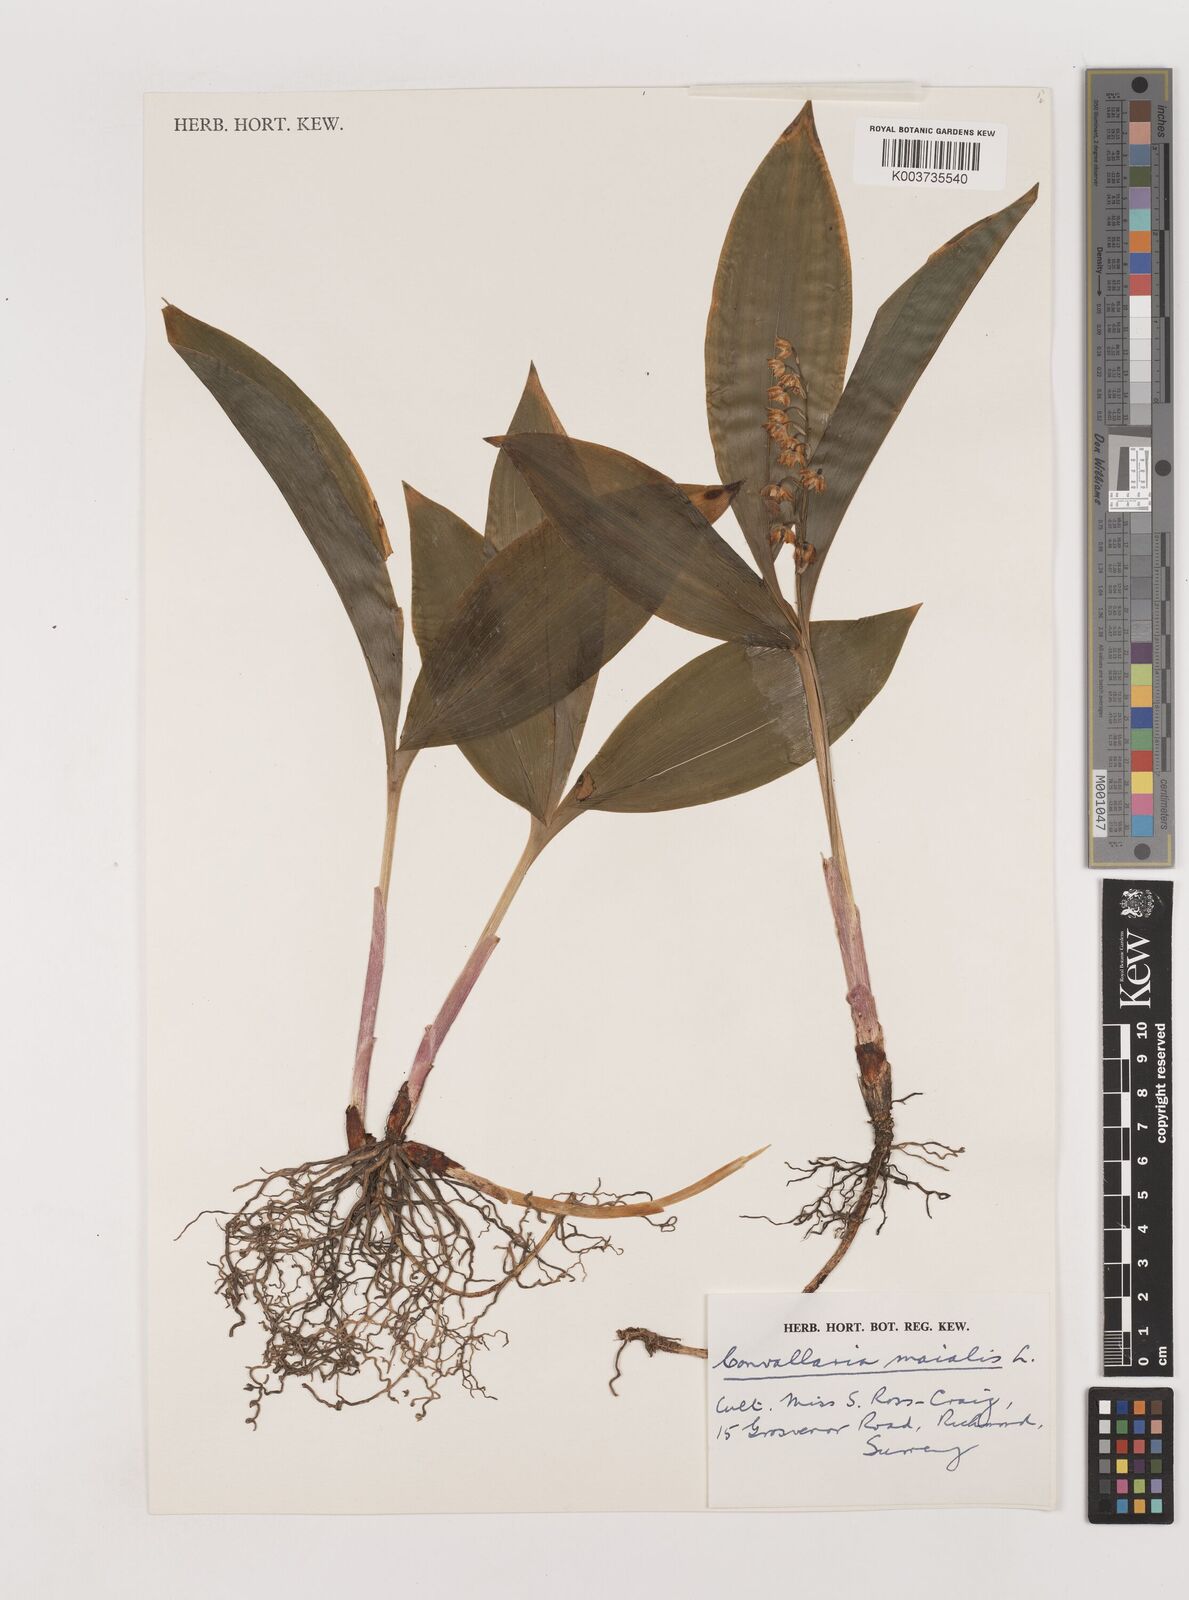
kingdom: Plantae
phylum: Tracheophyta
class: Liliopsida
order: Asparagales
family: Asparagaceae
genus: Convallaria
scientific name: Convallaria majalis
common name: Lily-of-the-valley
